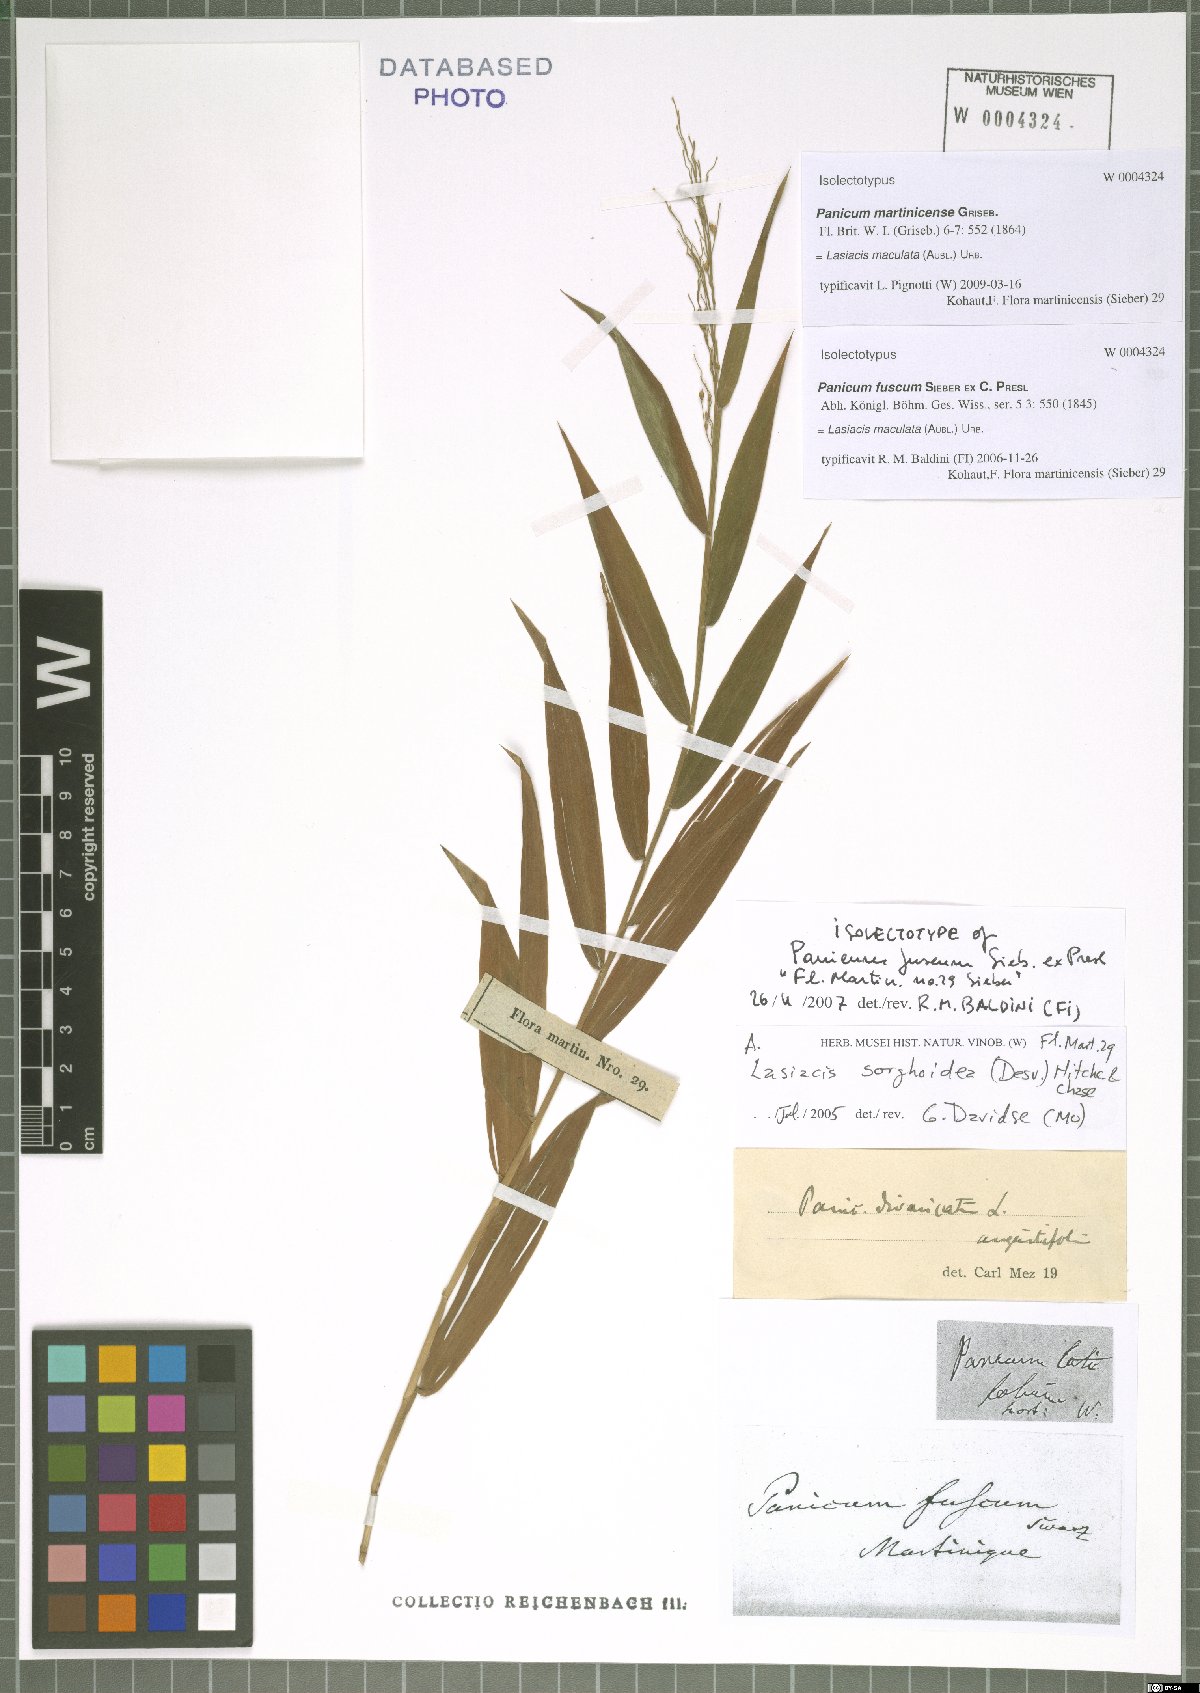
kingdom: Plantae
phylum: Tracheophyta
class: Liliopsida
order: Poales
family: Poaceae
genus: Lasiacis
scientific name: Lasiacis maculata
